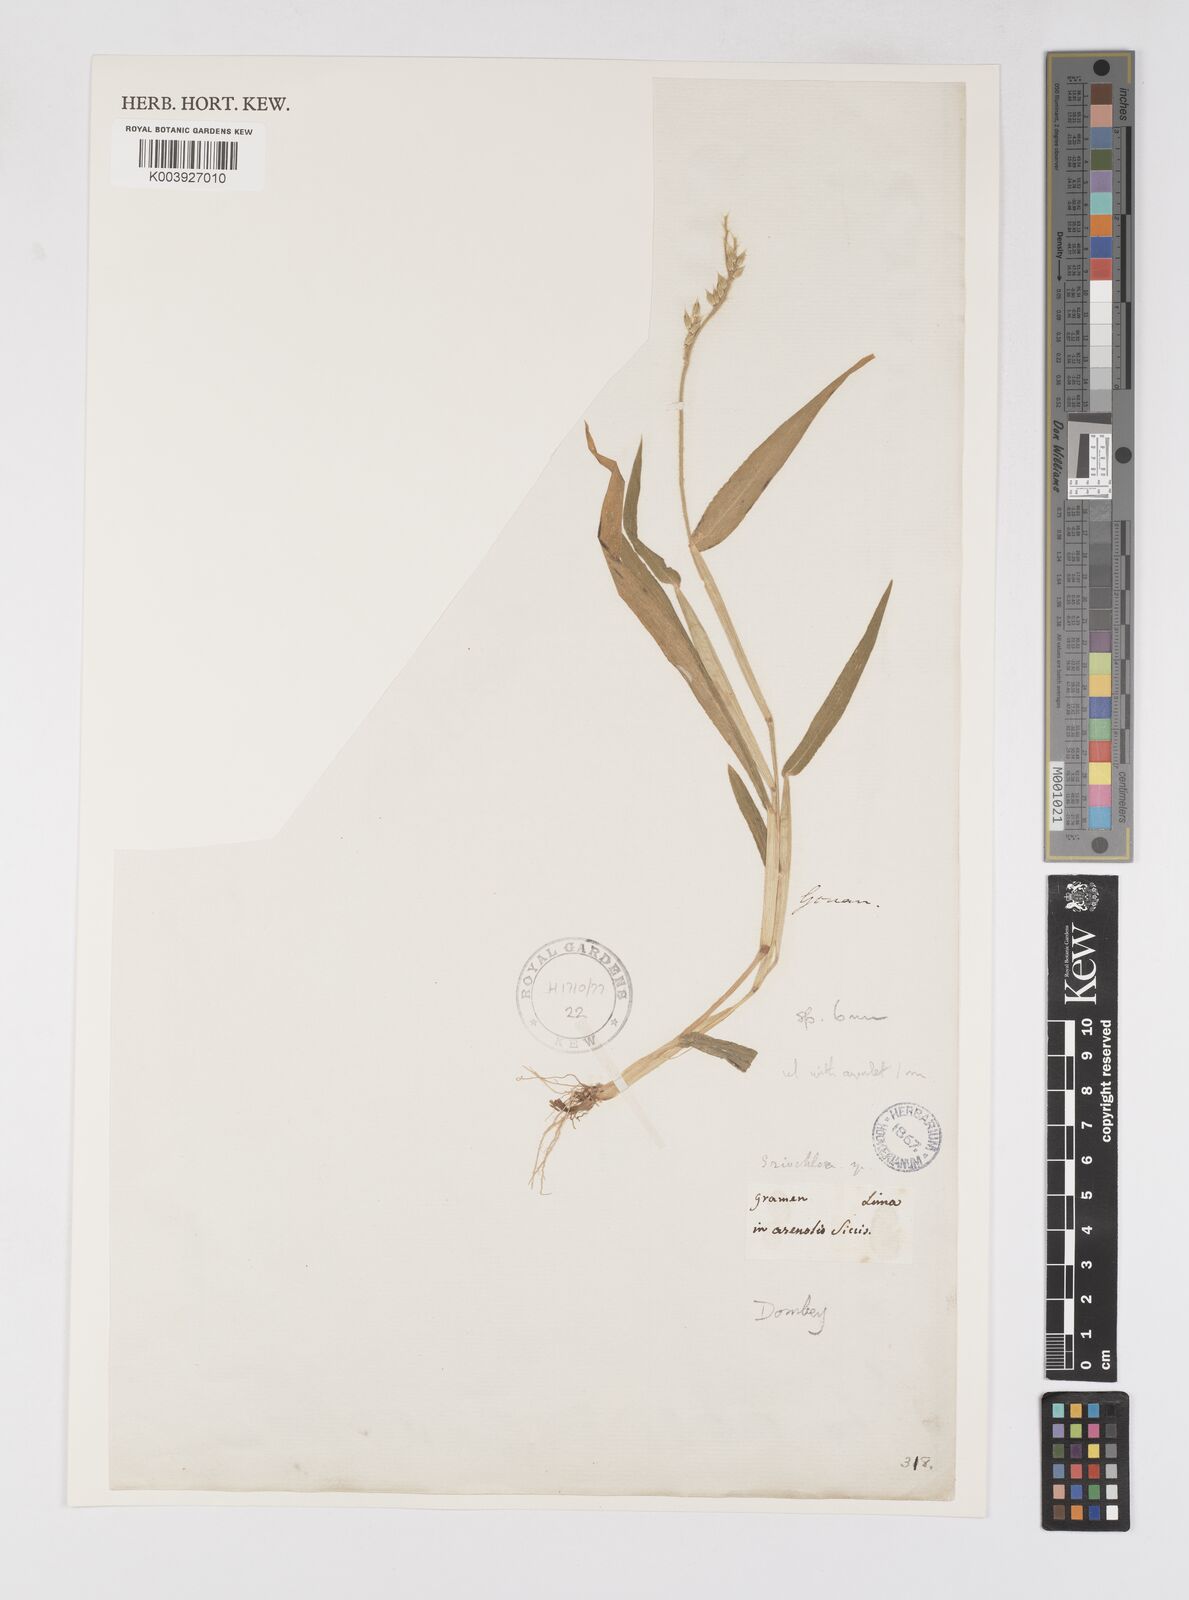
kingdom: Plantae
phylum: Tracheophyta
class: Liliopsida
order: Poales
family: Poaceae
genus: Eriochloa
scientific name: Eriochloa pacifica
